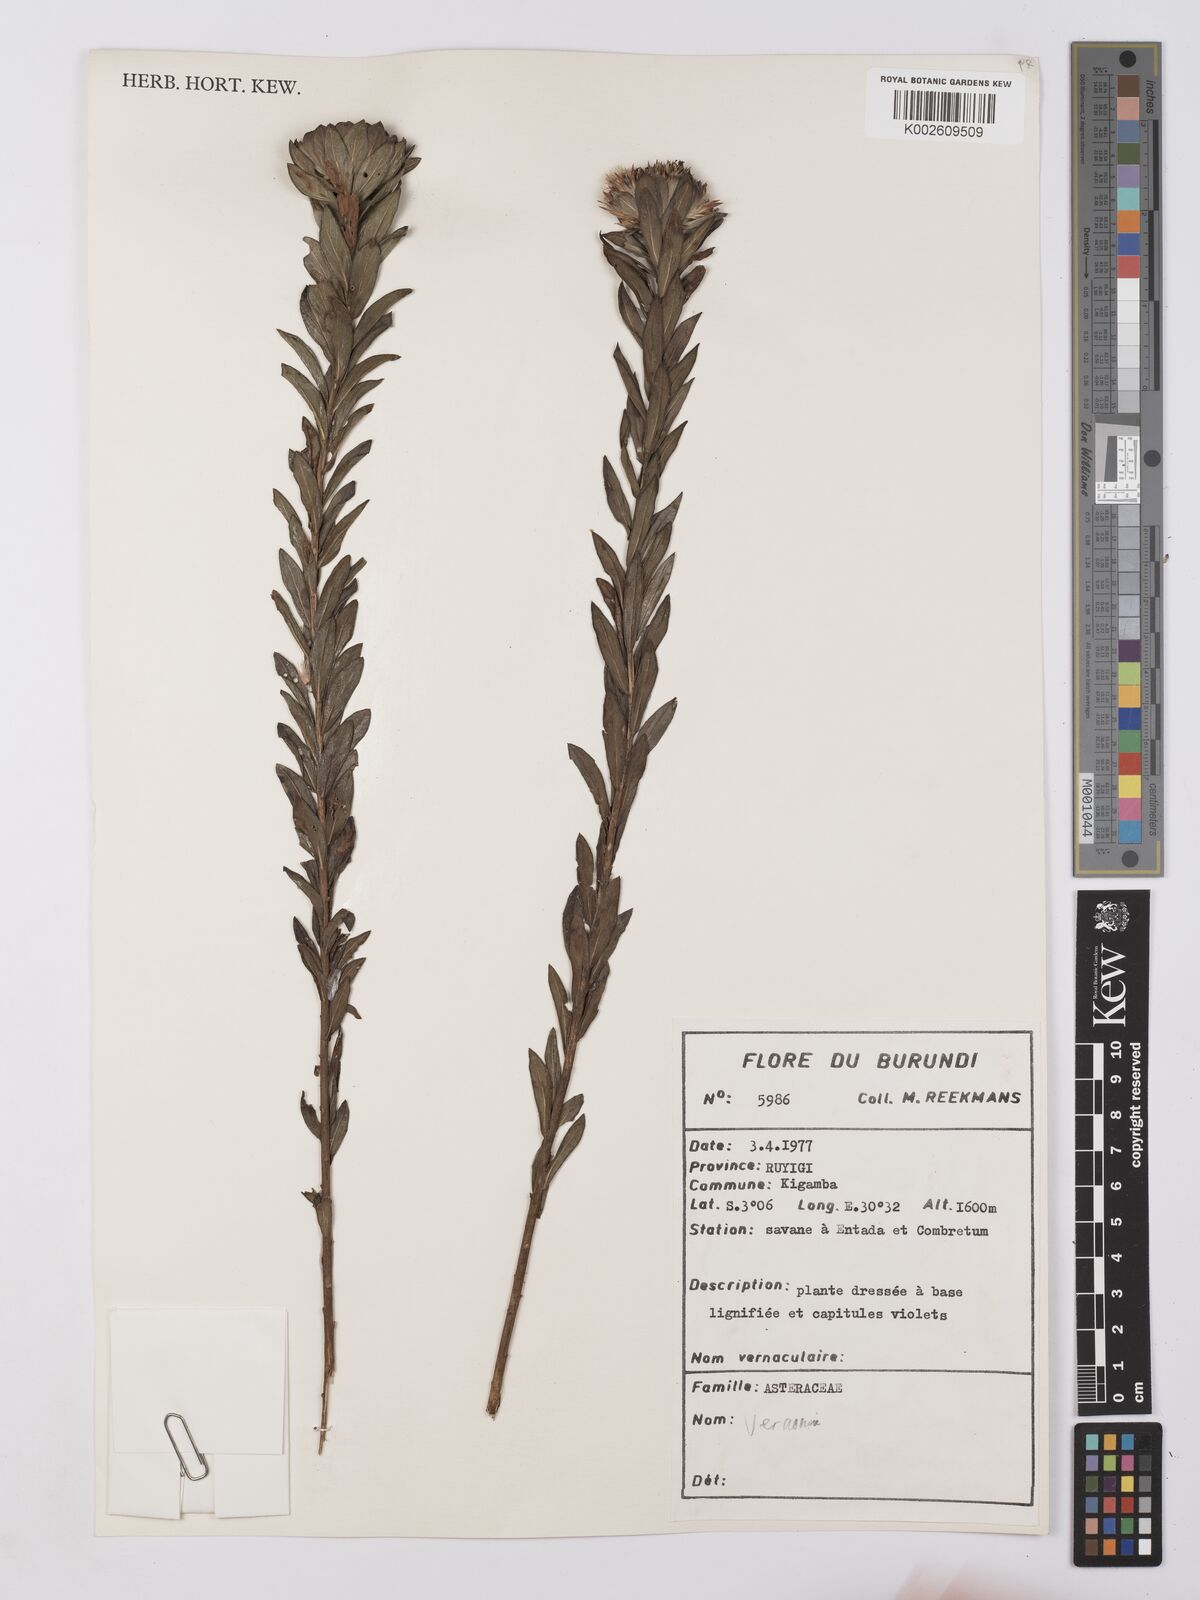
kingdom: Plantae
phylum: Tracheophyta
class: Magnoliopsida
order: Asterales
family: Asteraceae
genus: Vernonia
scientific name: Vernonia
